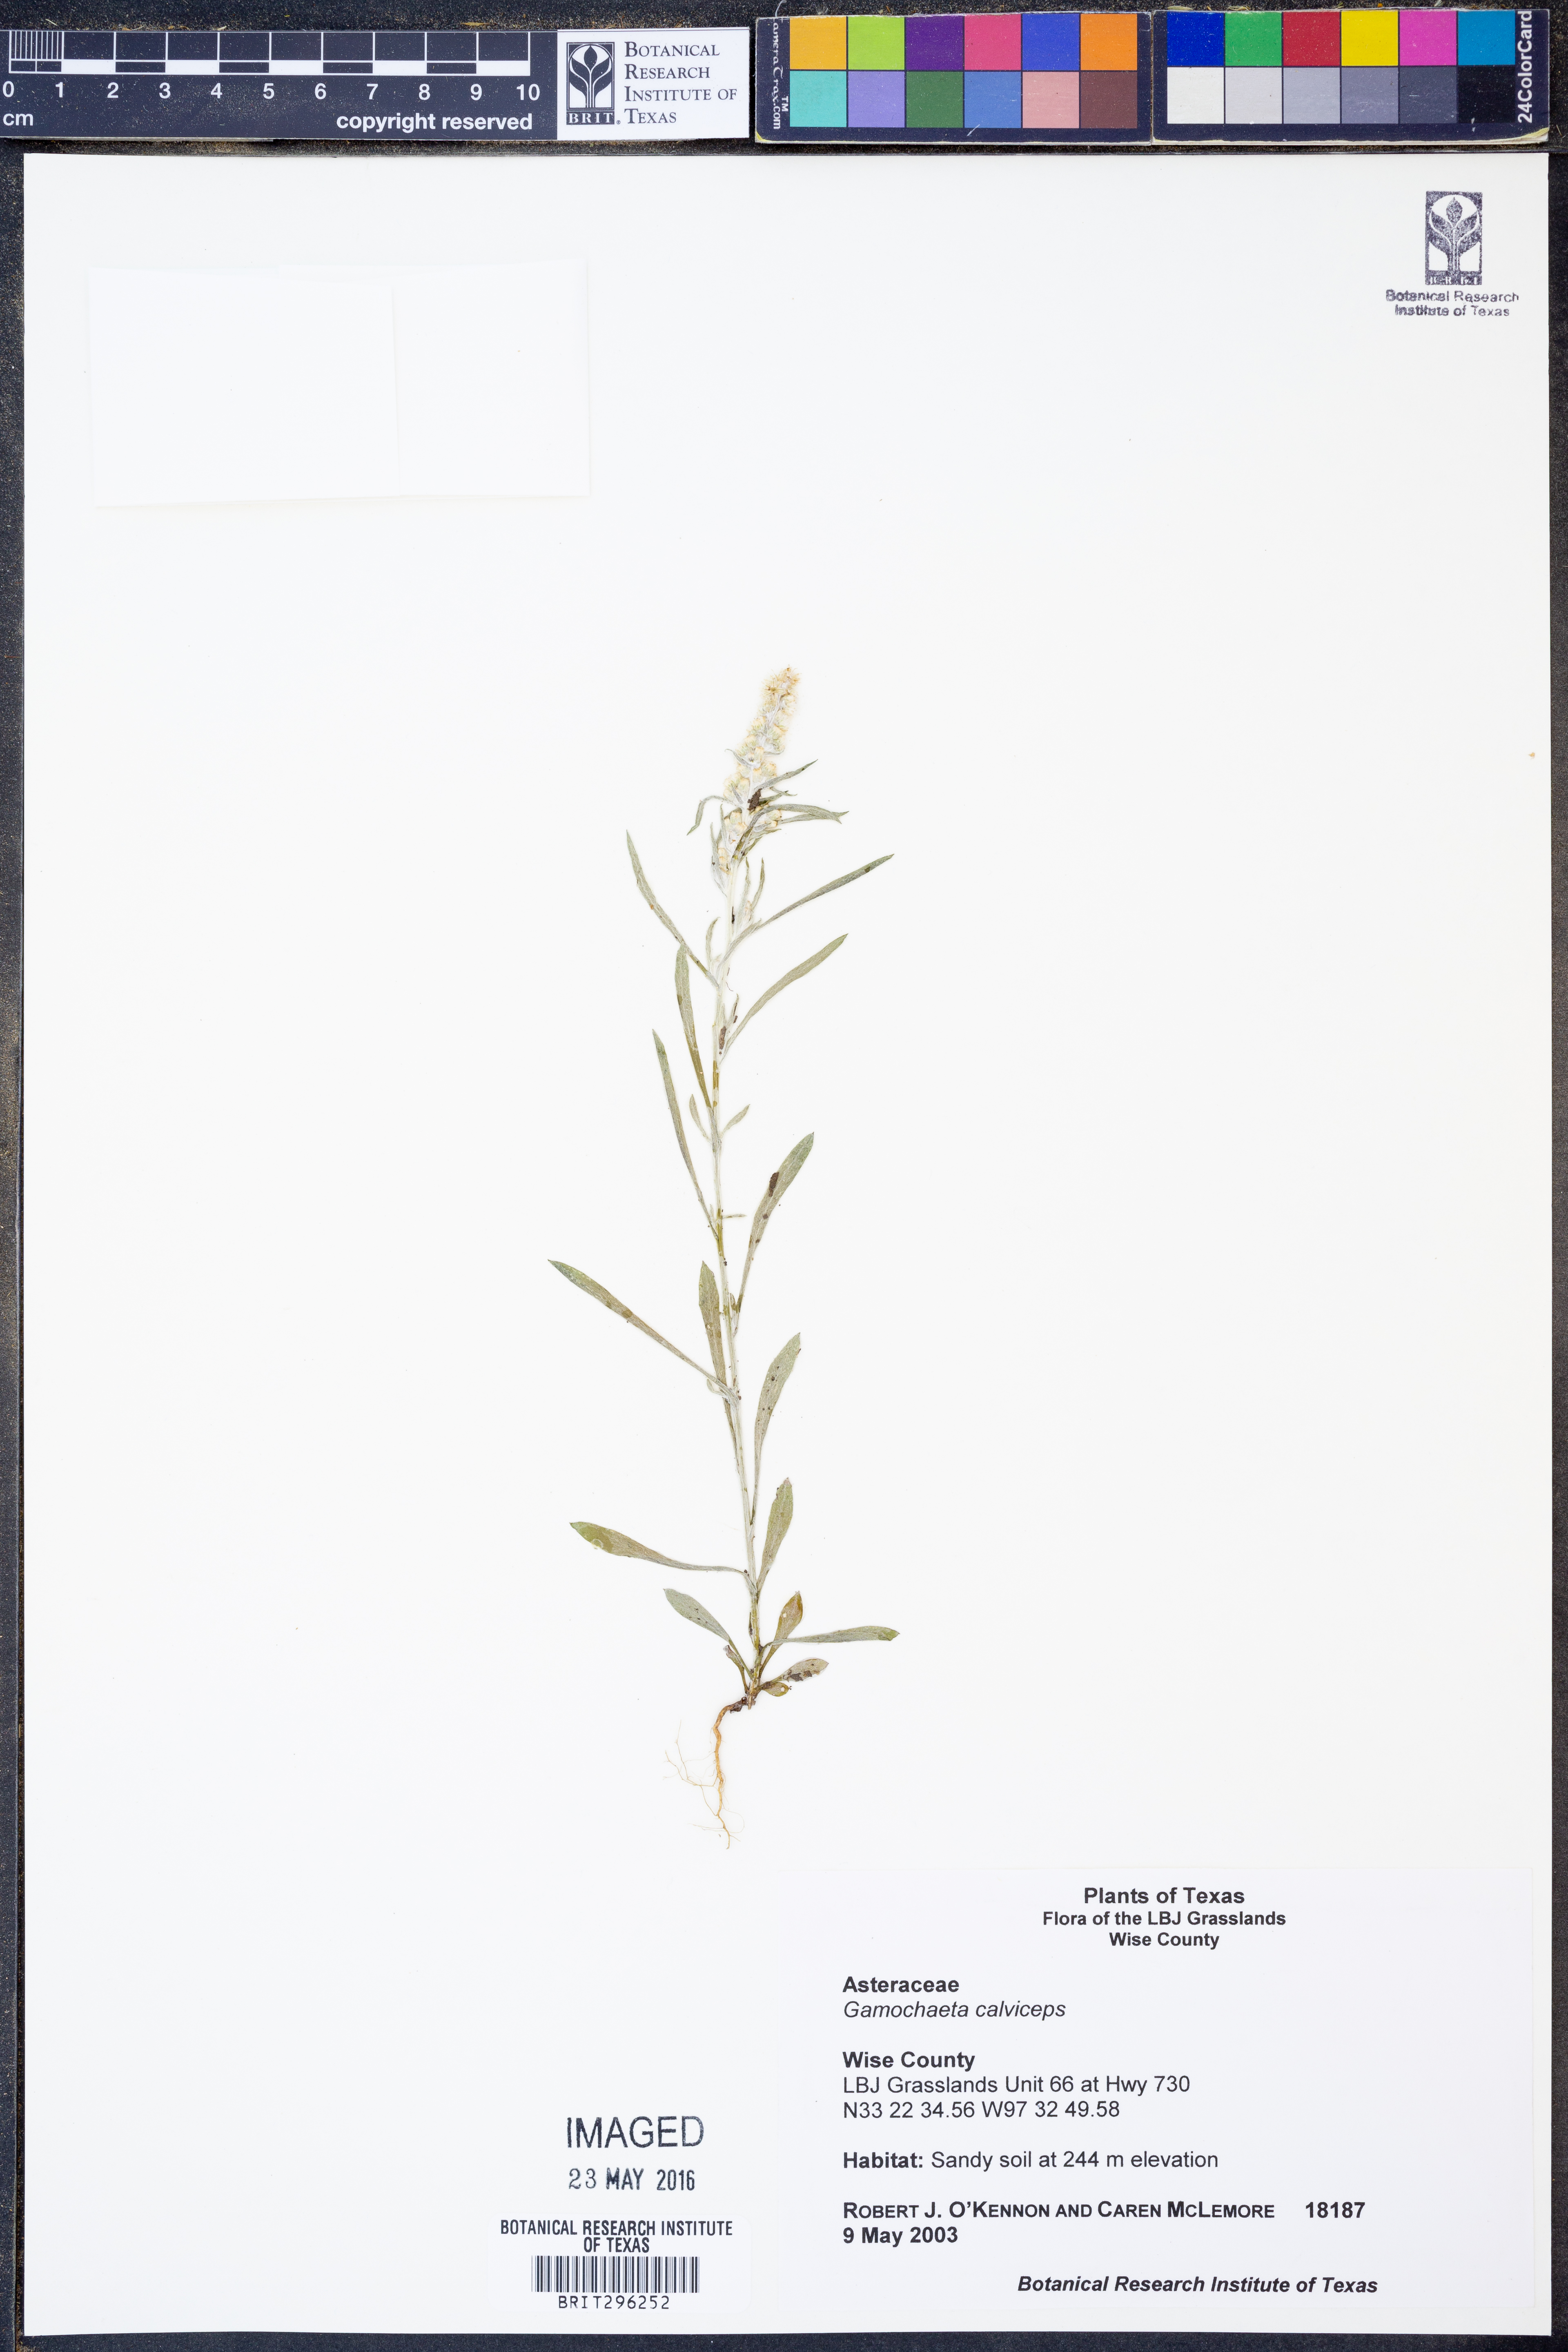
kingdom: Plantae
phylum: Tracheophyta
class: Magnoliopsida
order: Asterales
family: Asteraceae
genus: Gamochaeta
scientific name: Gamochaeta calviceps
